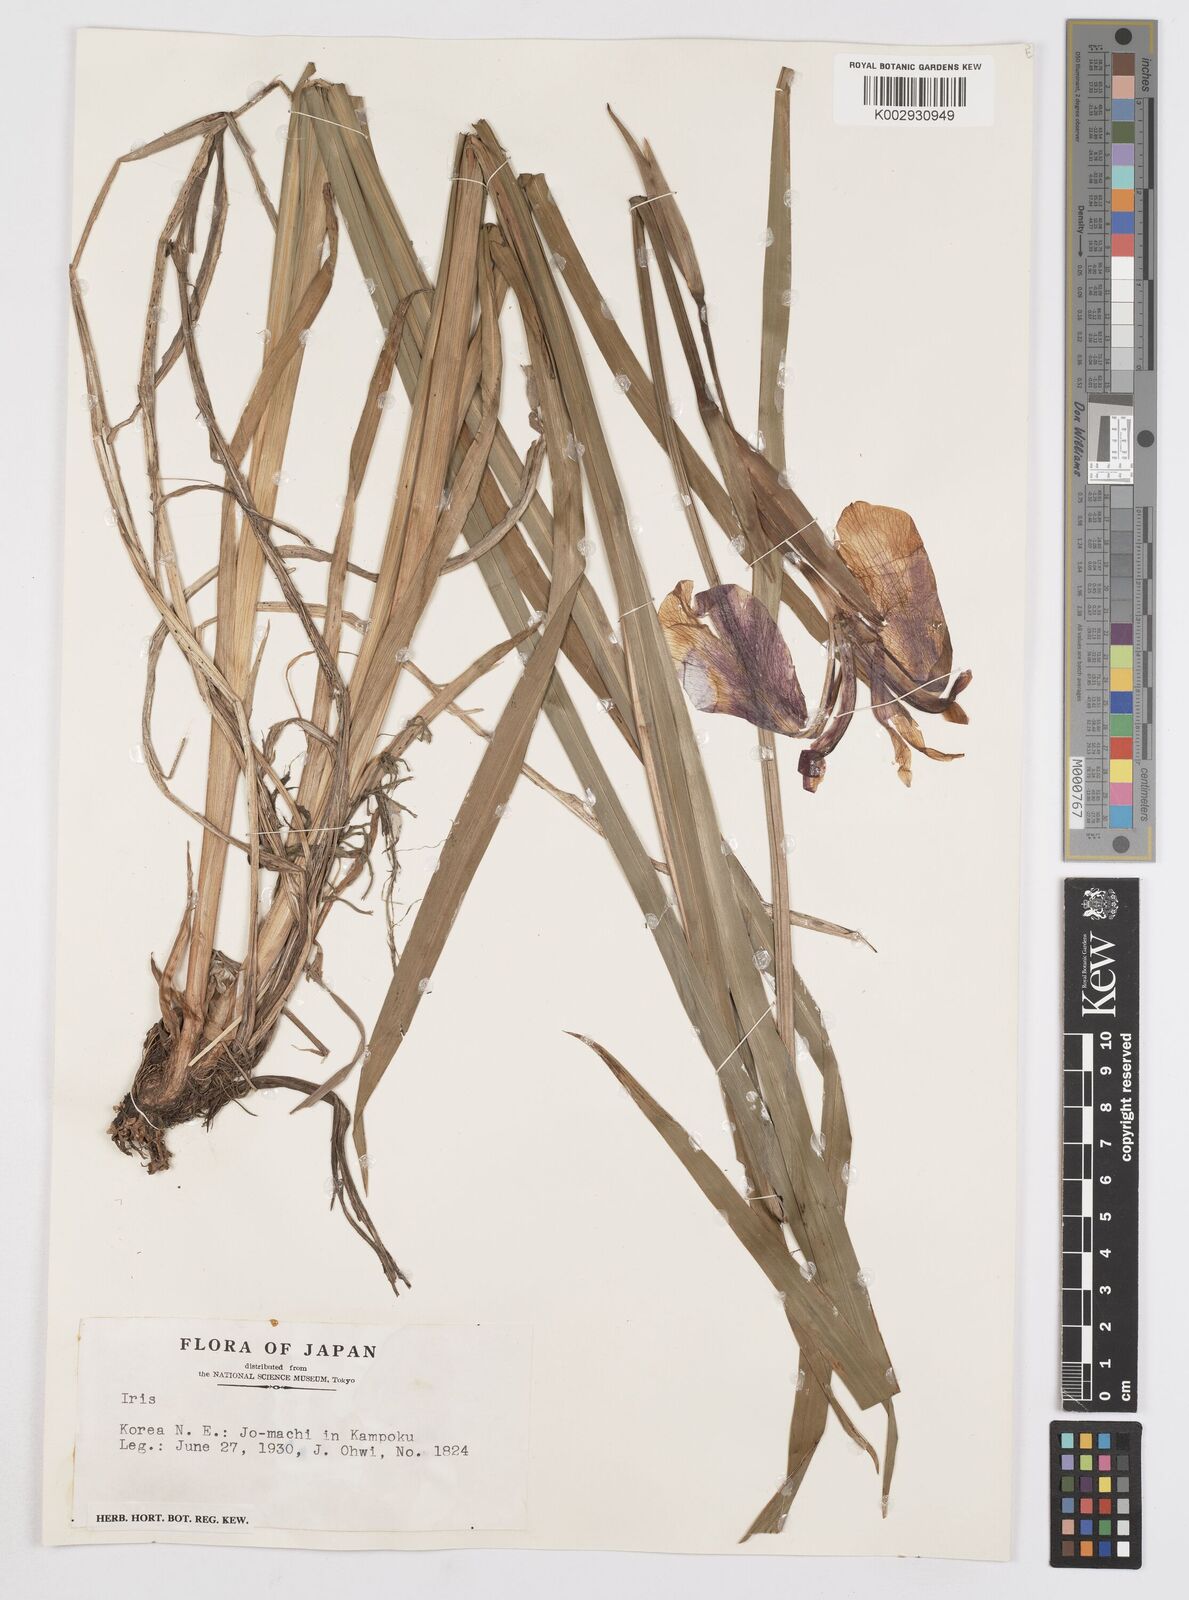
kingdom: Plantae
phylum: Tracheophyta
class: Liliopsida
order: Asparagales
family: Iridaceae
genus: Iris
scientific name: Iris
